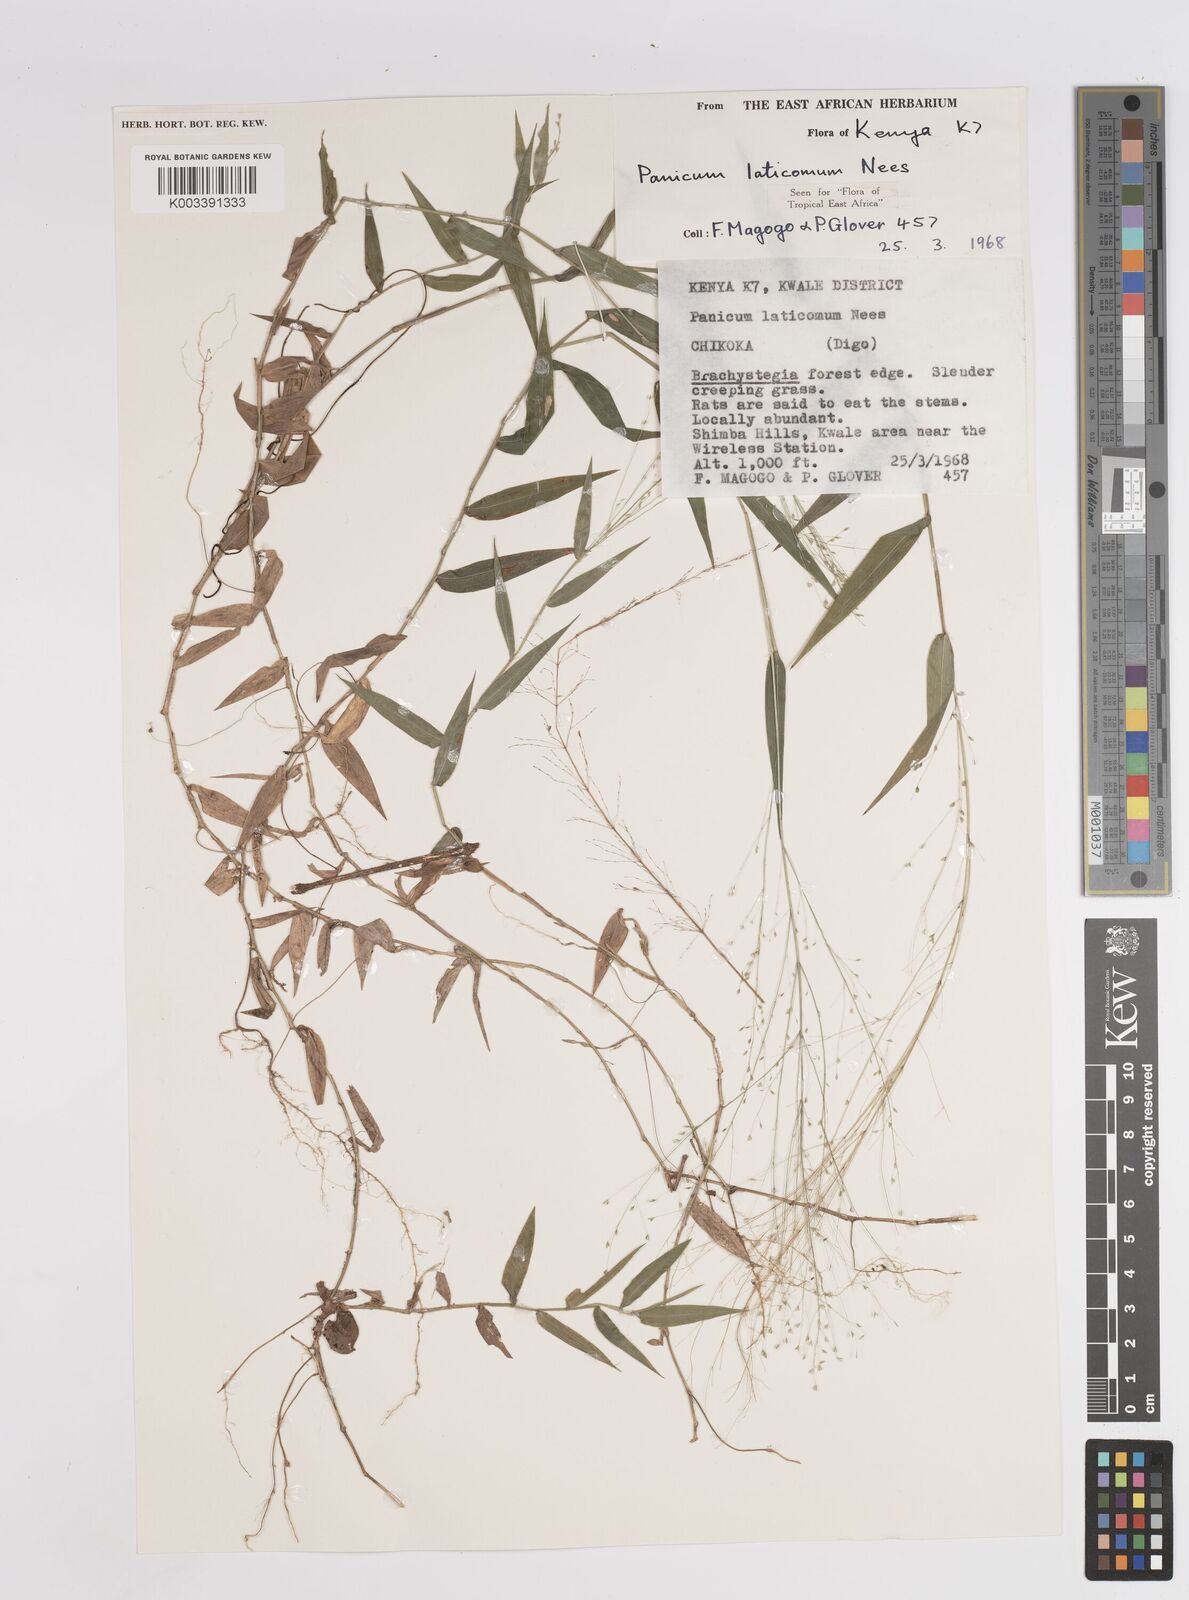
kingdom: Plantae
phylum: Tracheophyta
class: Liliopsida
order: Poales
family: Poaceae
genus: Panicum
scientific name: Panicum laticomum
